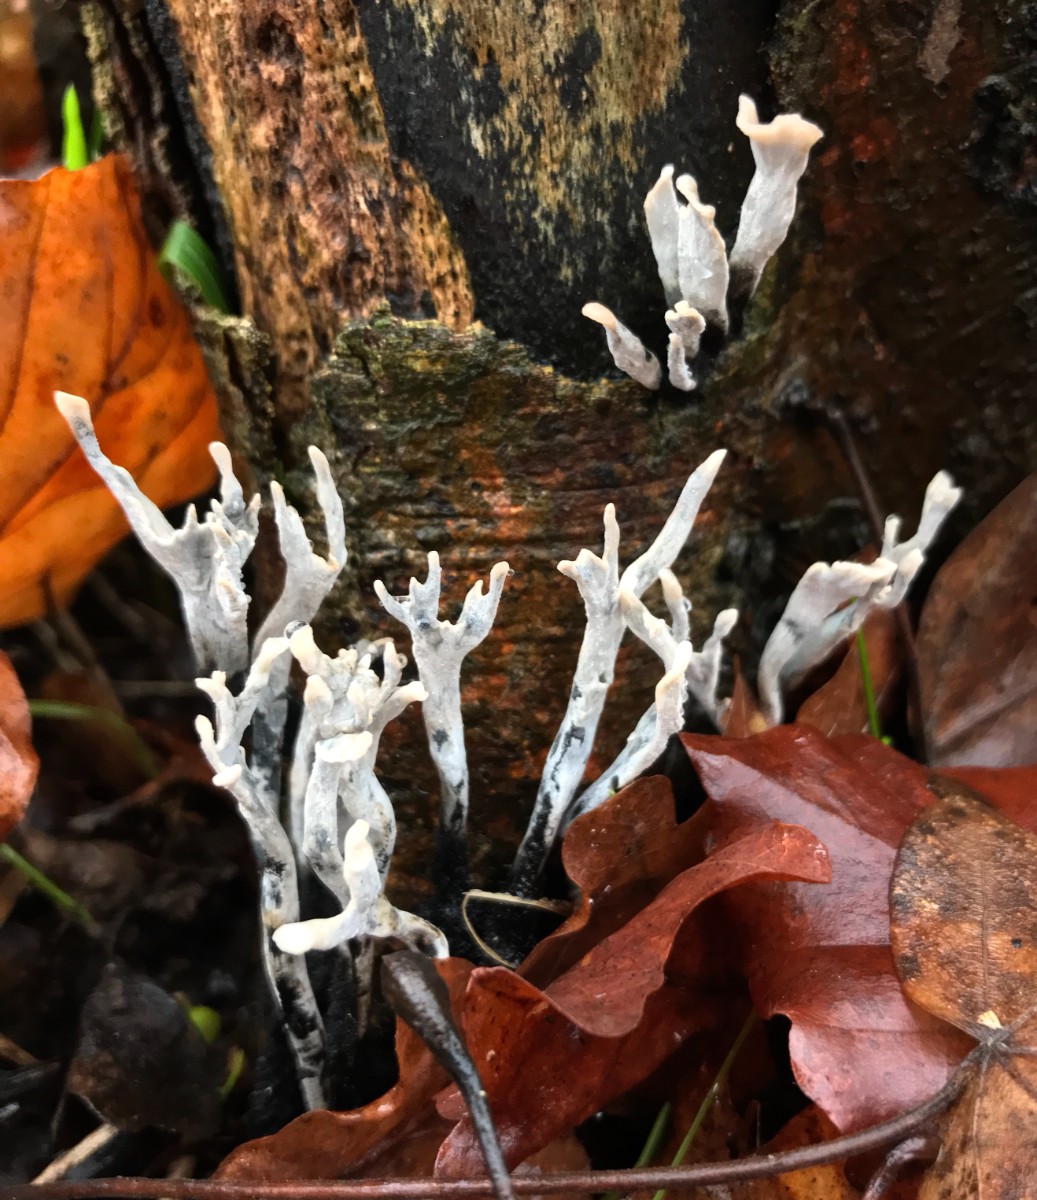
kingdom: Fungi
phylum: Ascomycota
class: Sordariomycetes
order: Xylariales
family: Xylariaceae
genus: Xylaria
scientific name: Xylaria hypoxylon
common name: grenet stødsvamp
